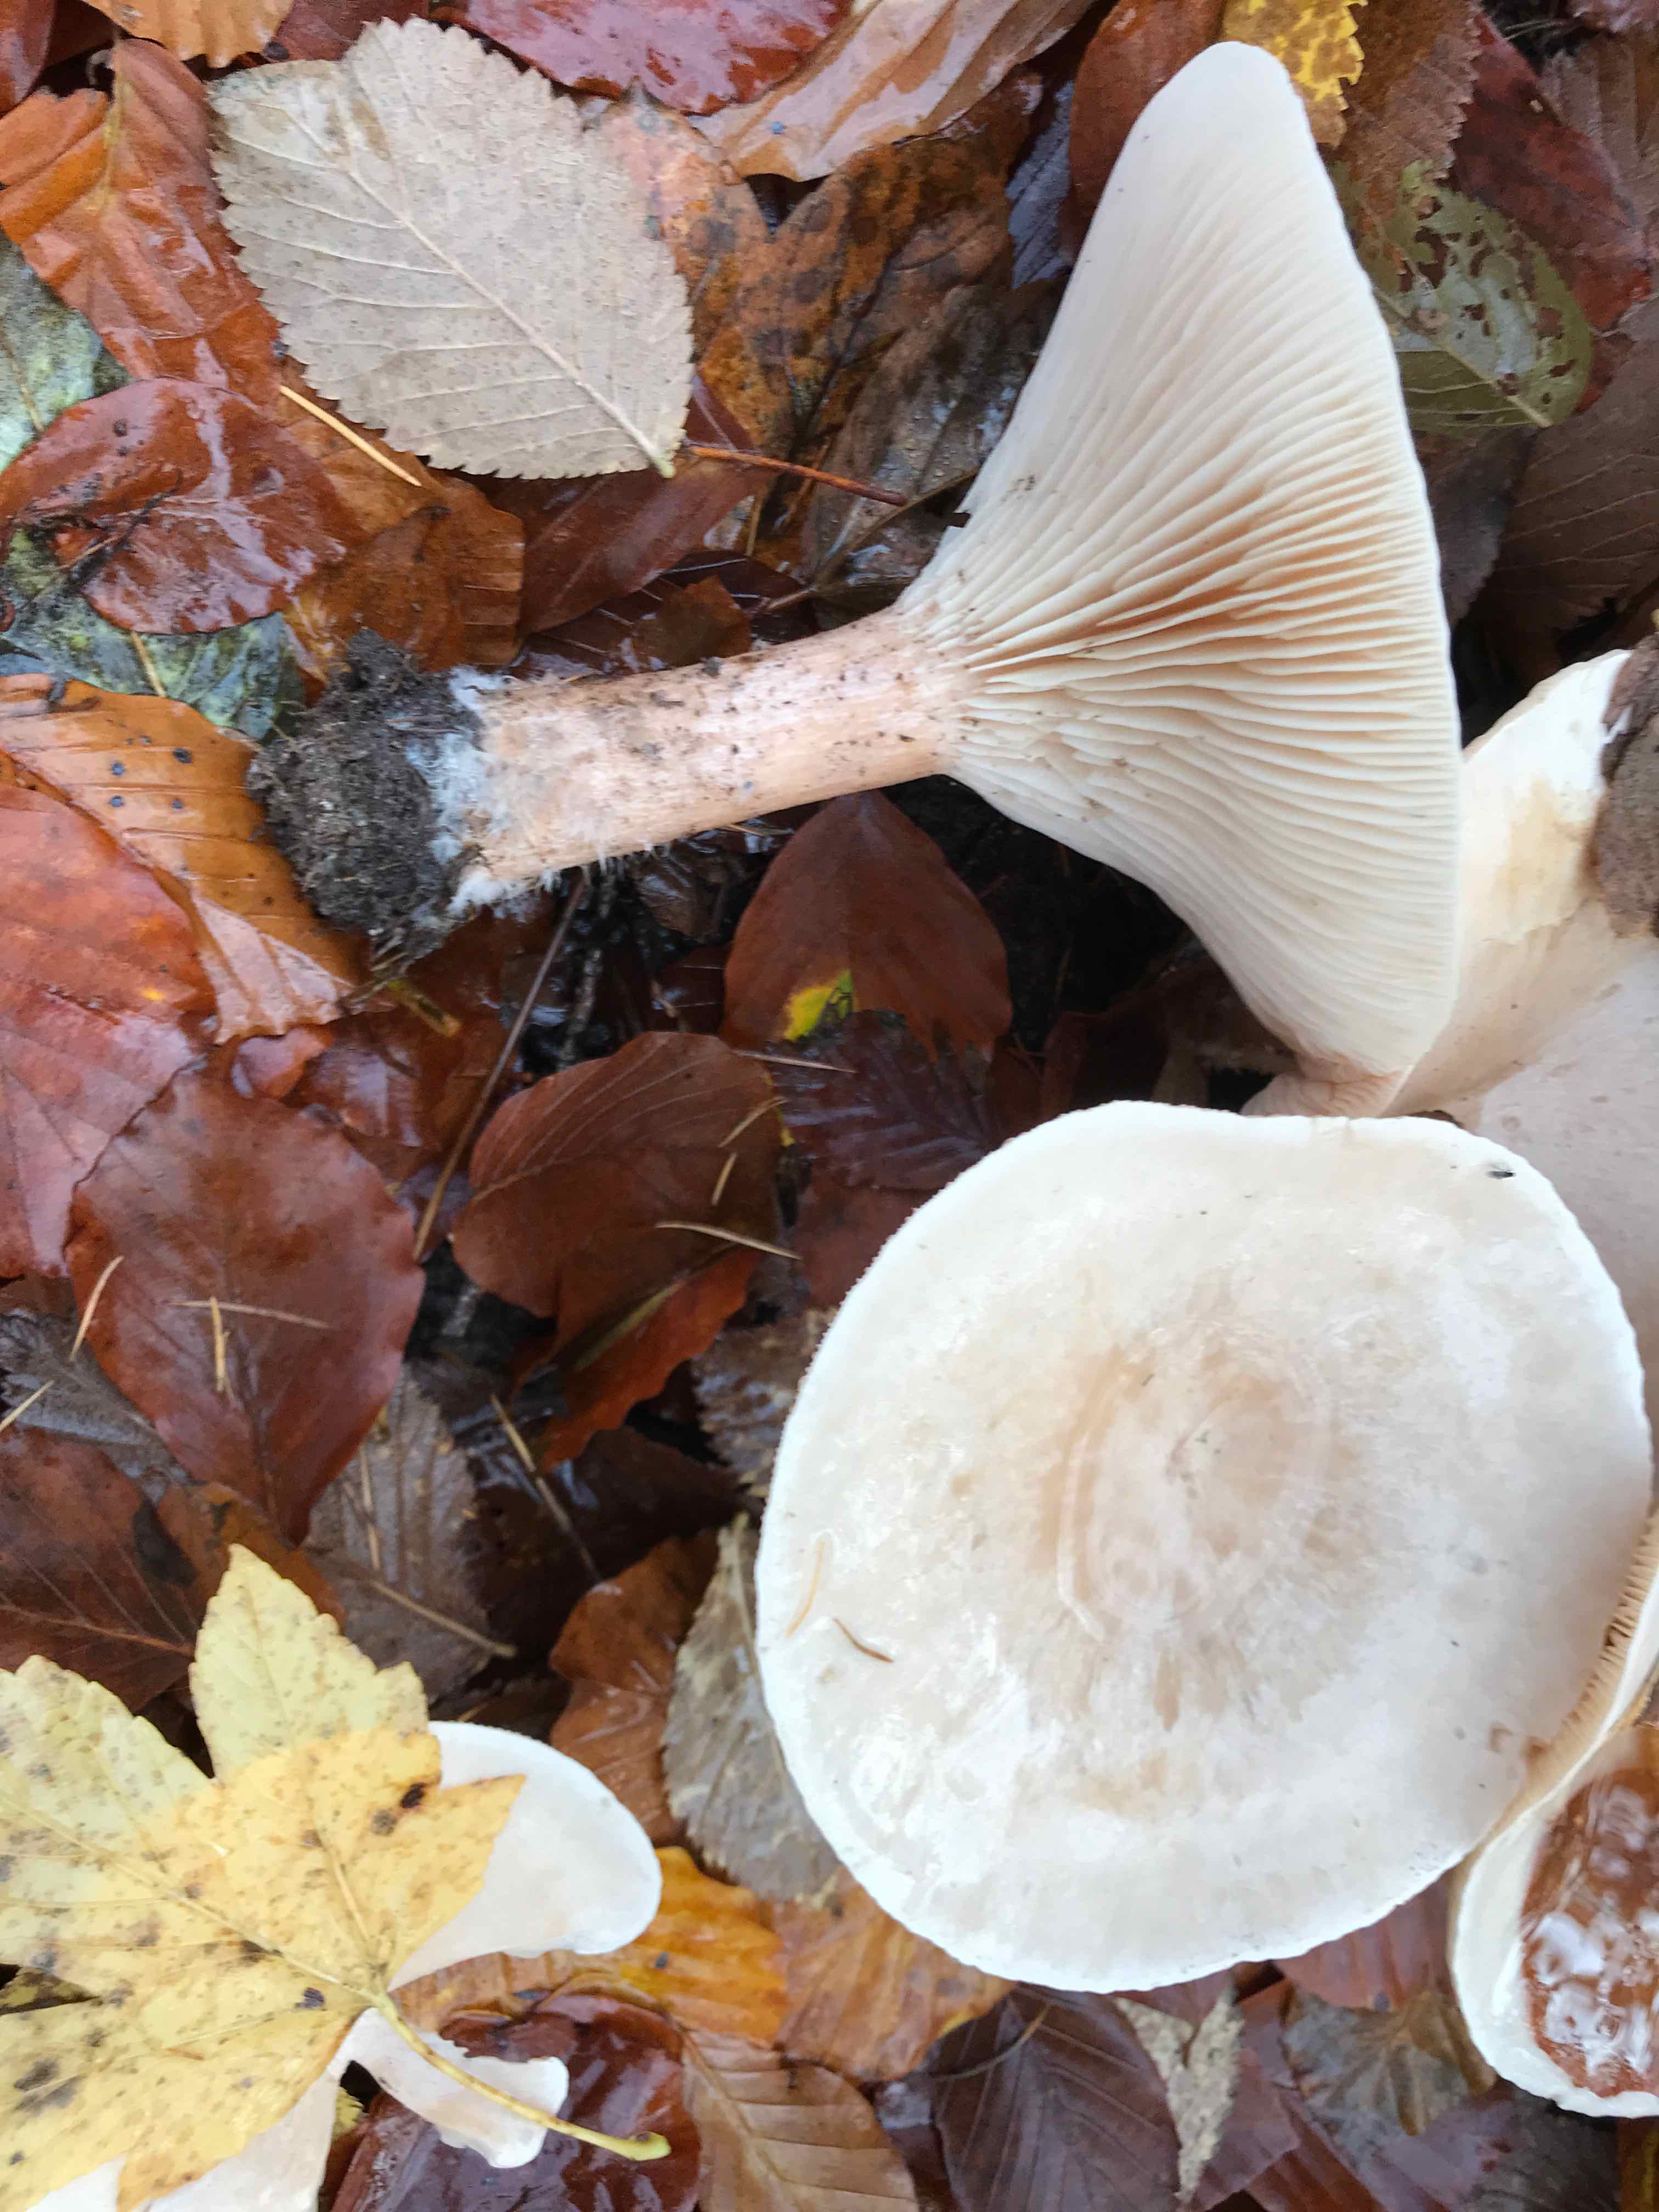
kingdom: Fungi
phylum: Basidiomycota
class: Agaricomycetes
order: Agaricales
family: Tricholomataceae
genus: Infundibulicybe
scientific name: Infundibulicybe geotropa
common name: stor tragthat
